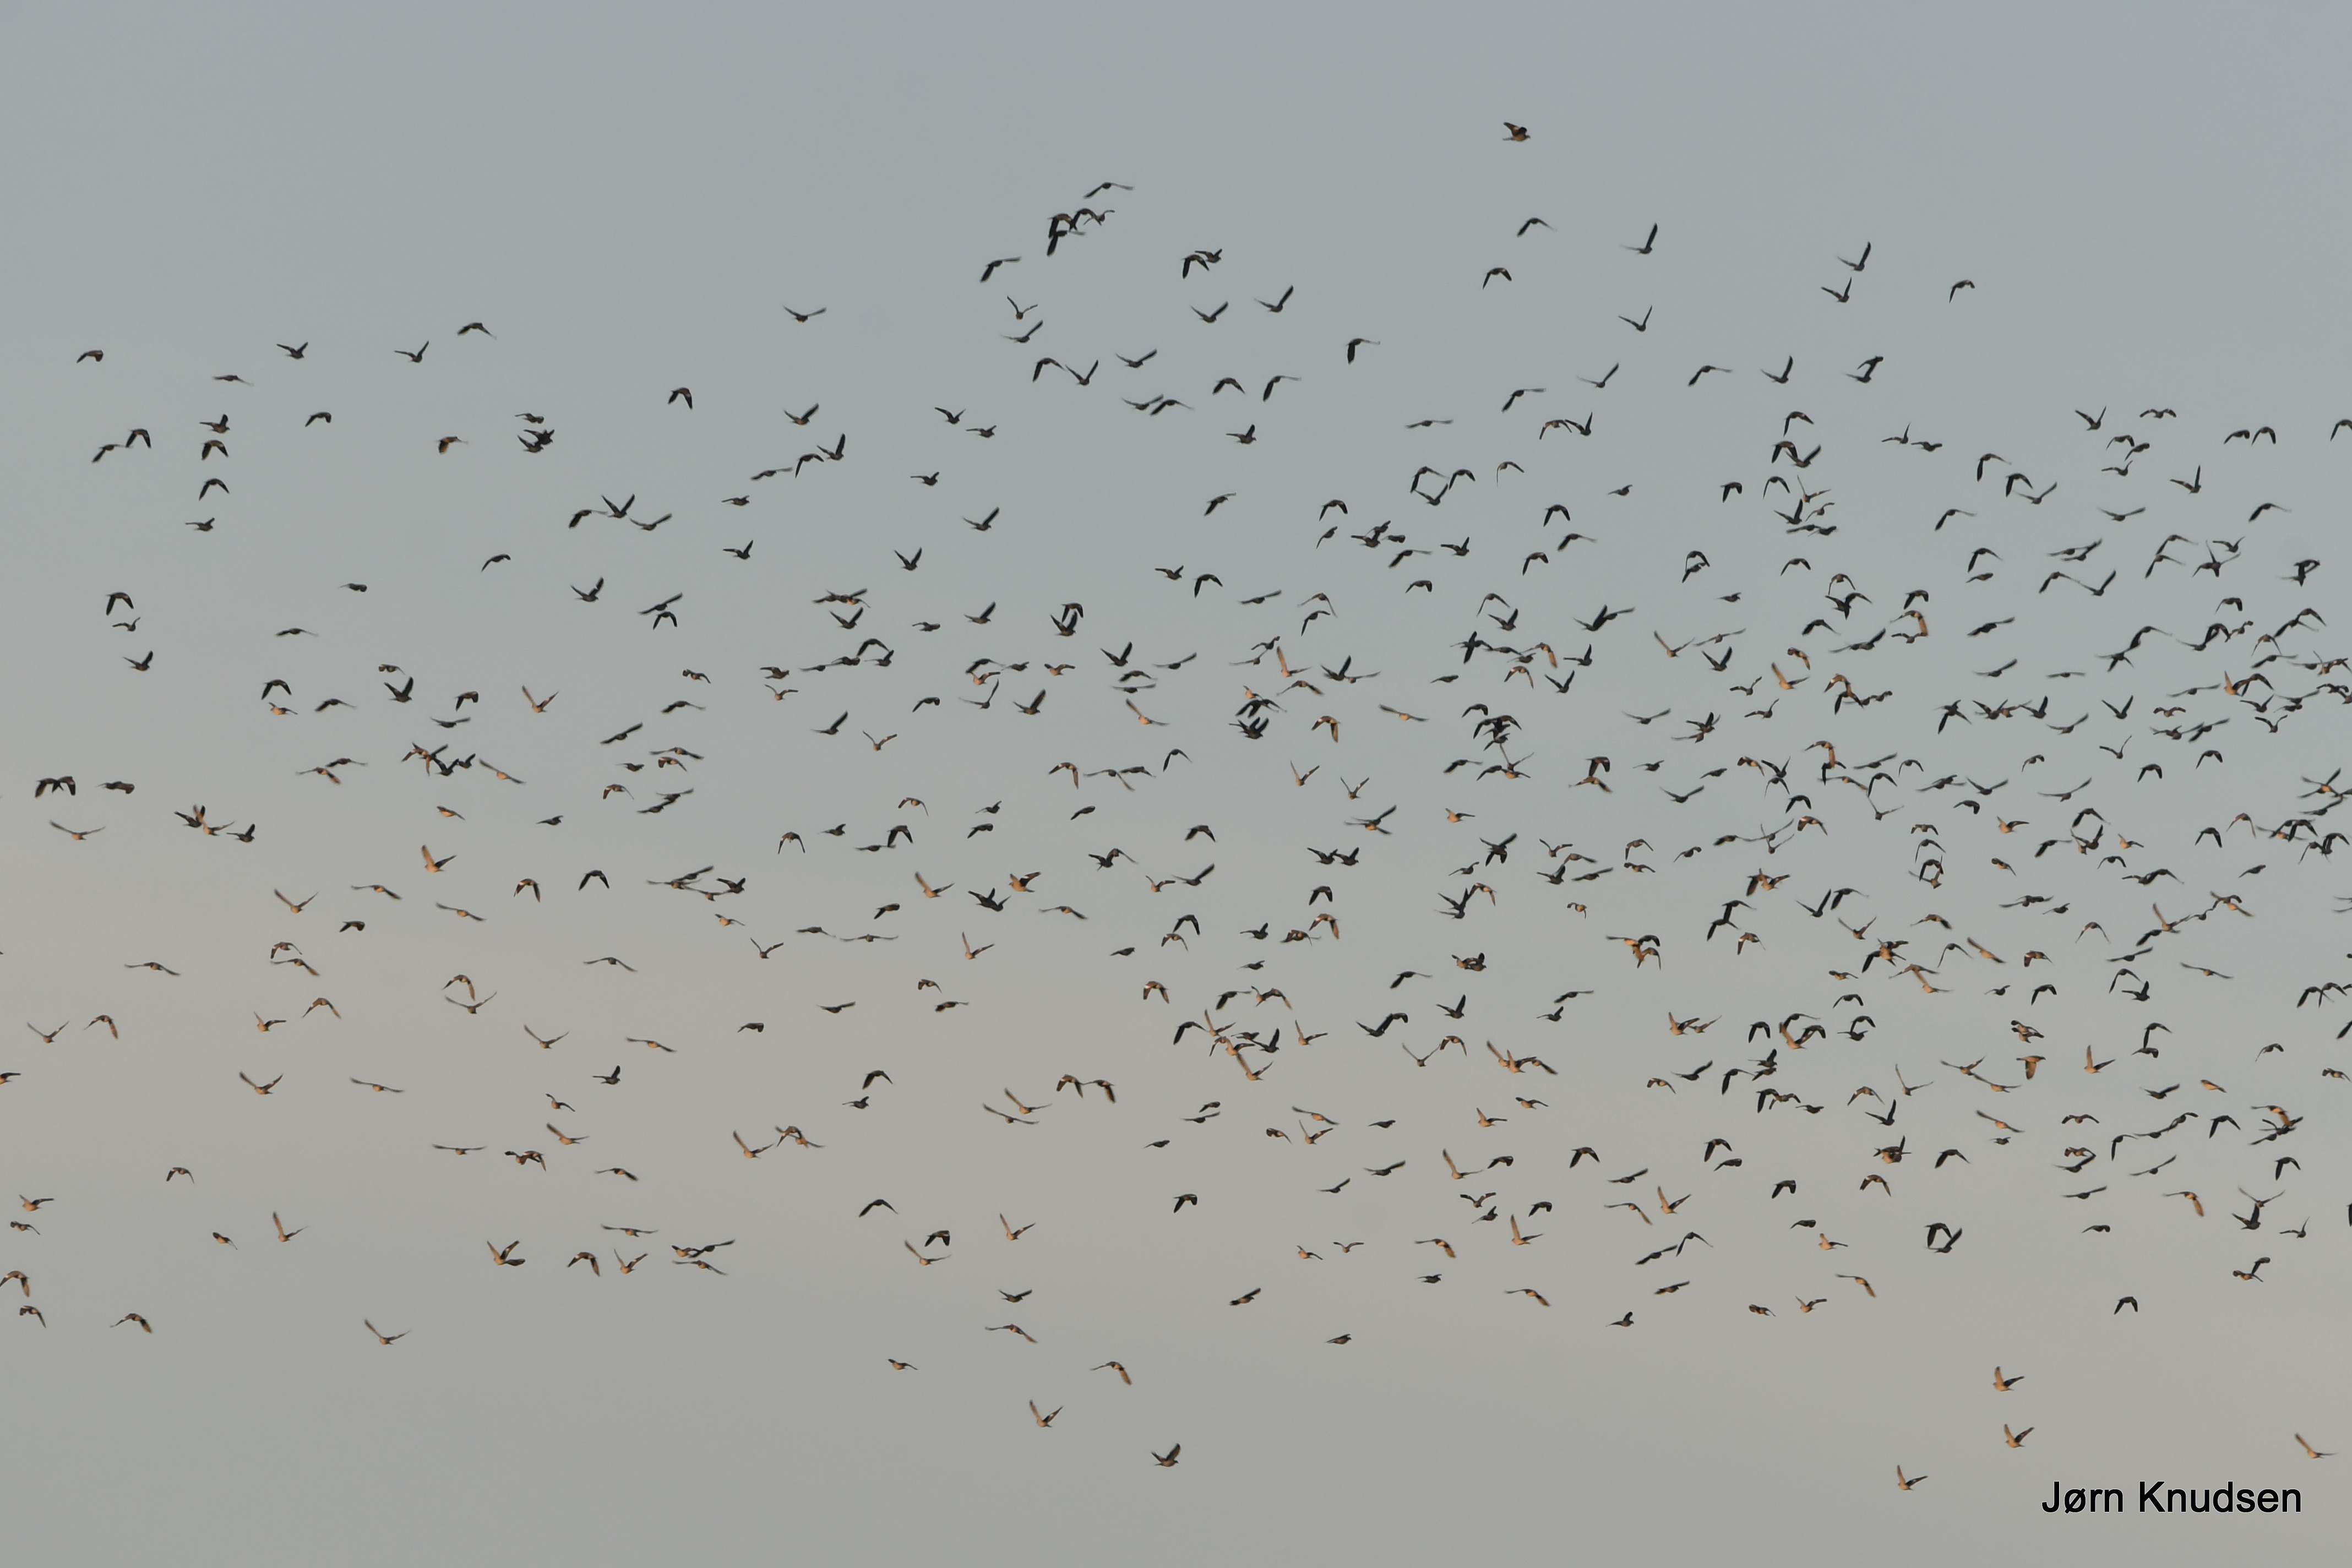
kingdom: Animalia
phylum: Chordata
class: Aves
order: Columbiformes
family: Columbidae
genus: Columba
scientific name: Columba palumbus
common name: Ringdue
